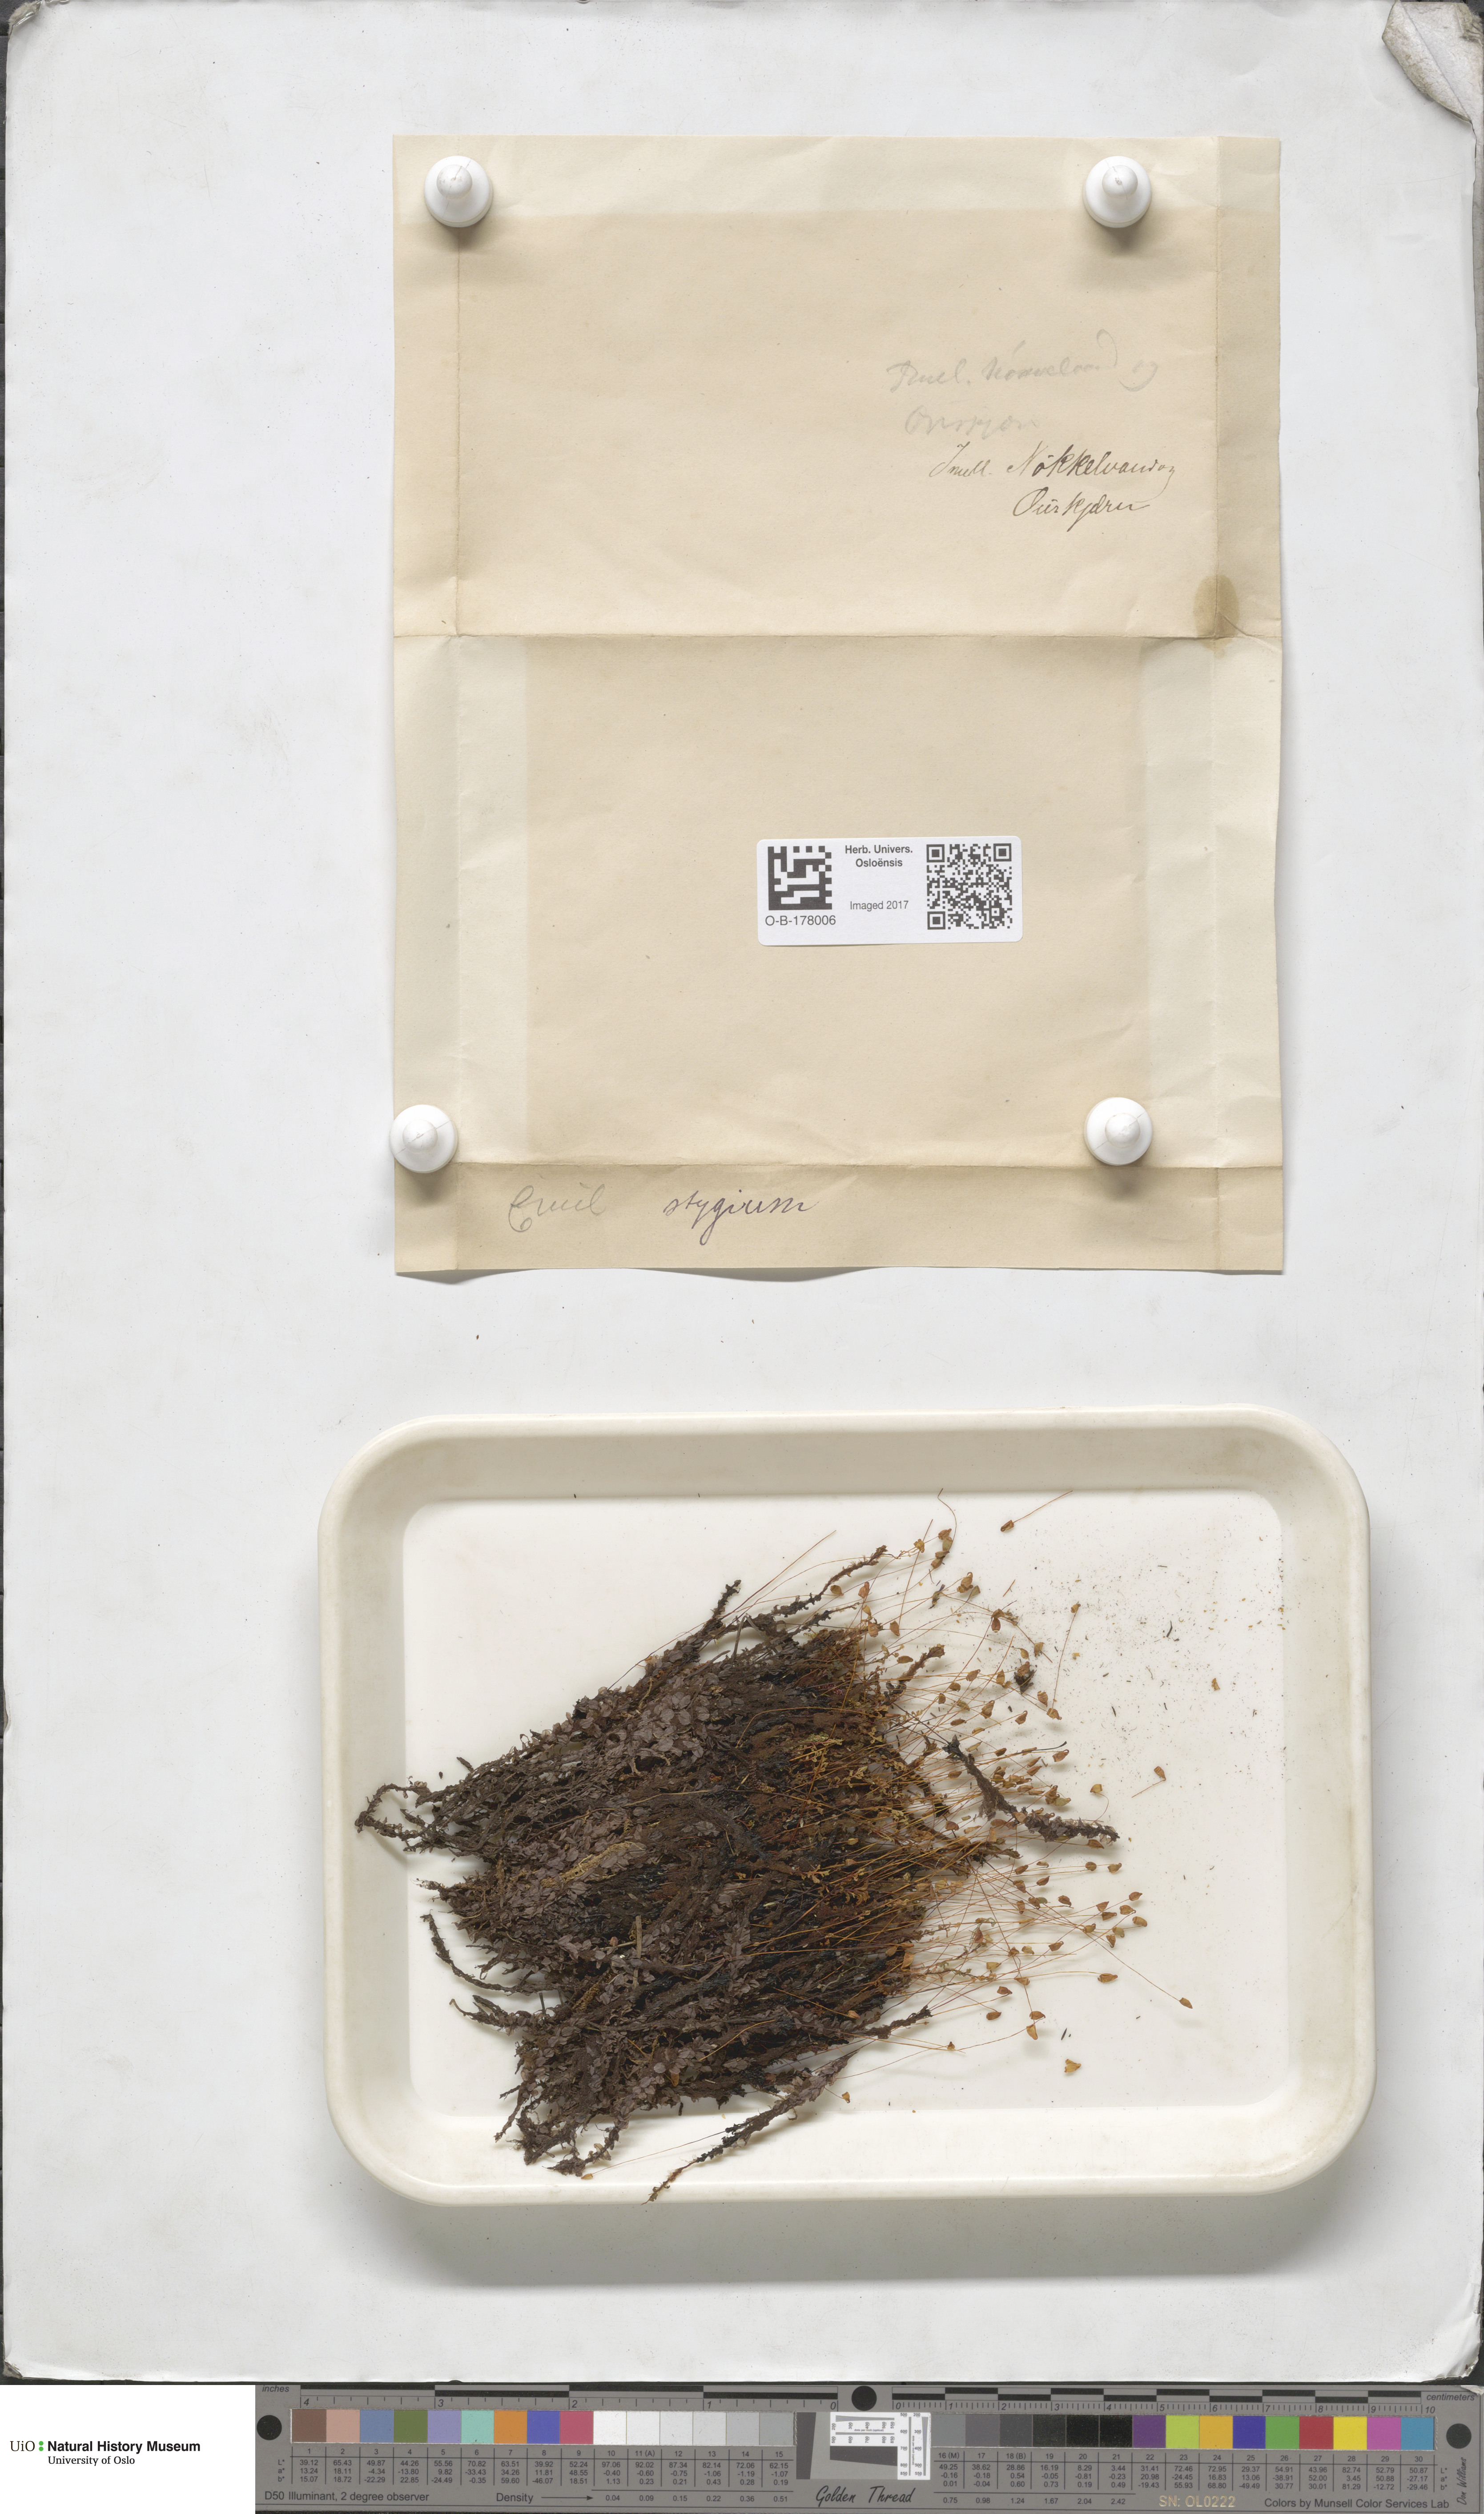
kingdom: Plantae
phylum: Bryophyta
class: Bryopsida
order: Bryales
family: Mniaceae
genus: Cinclidium
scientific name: Cinclidium stygium
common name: Sooty cupola moss
